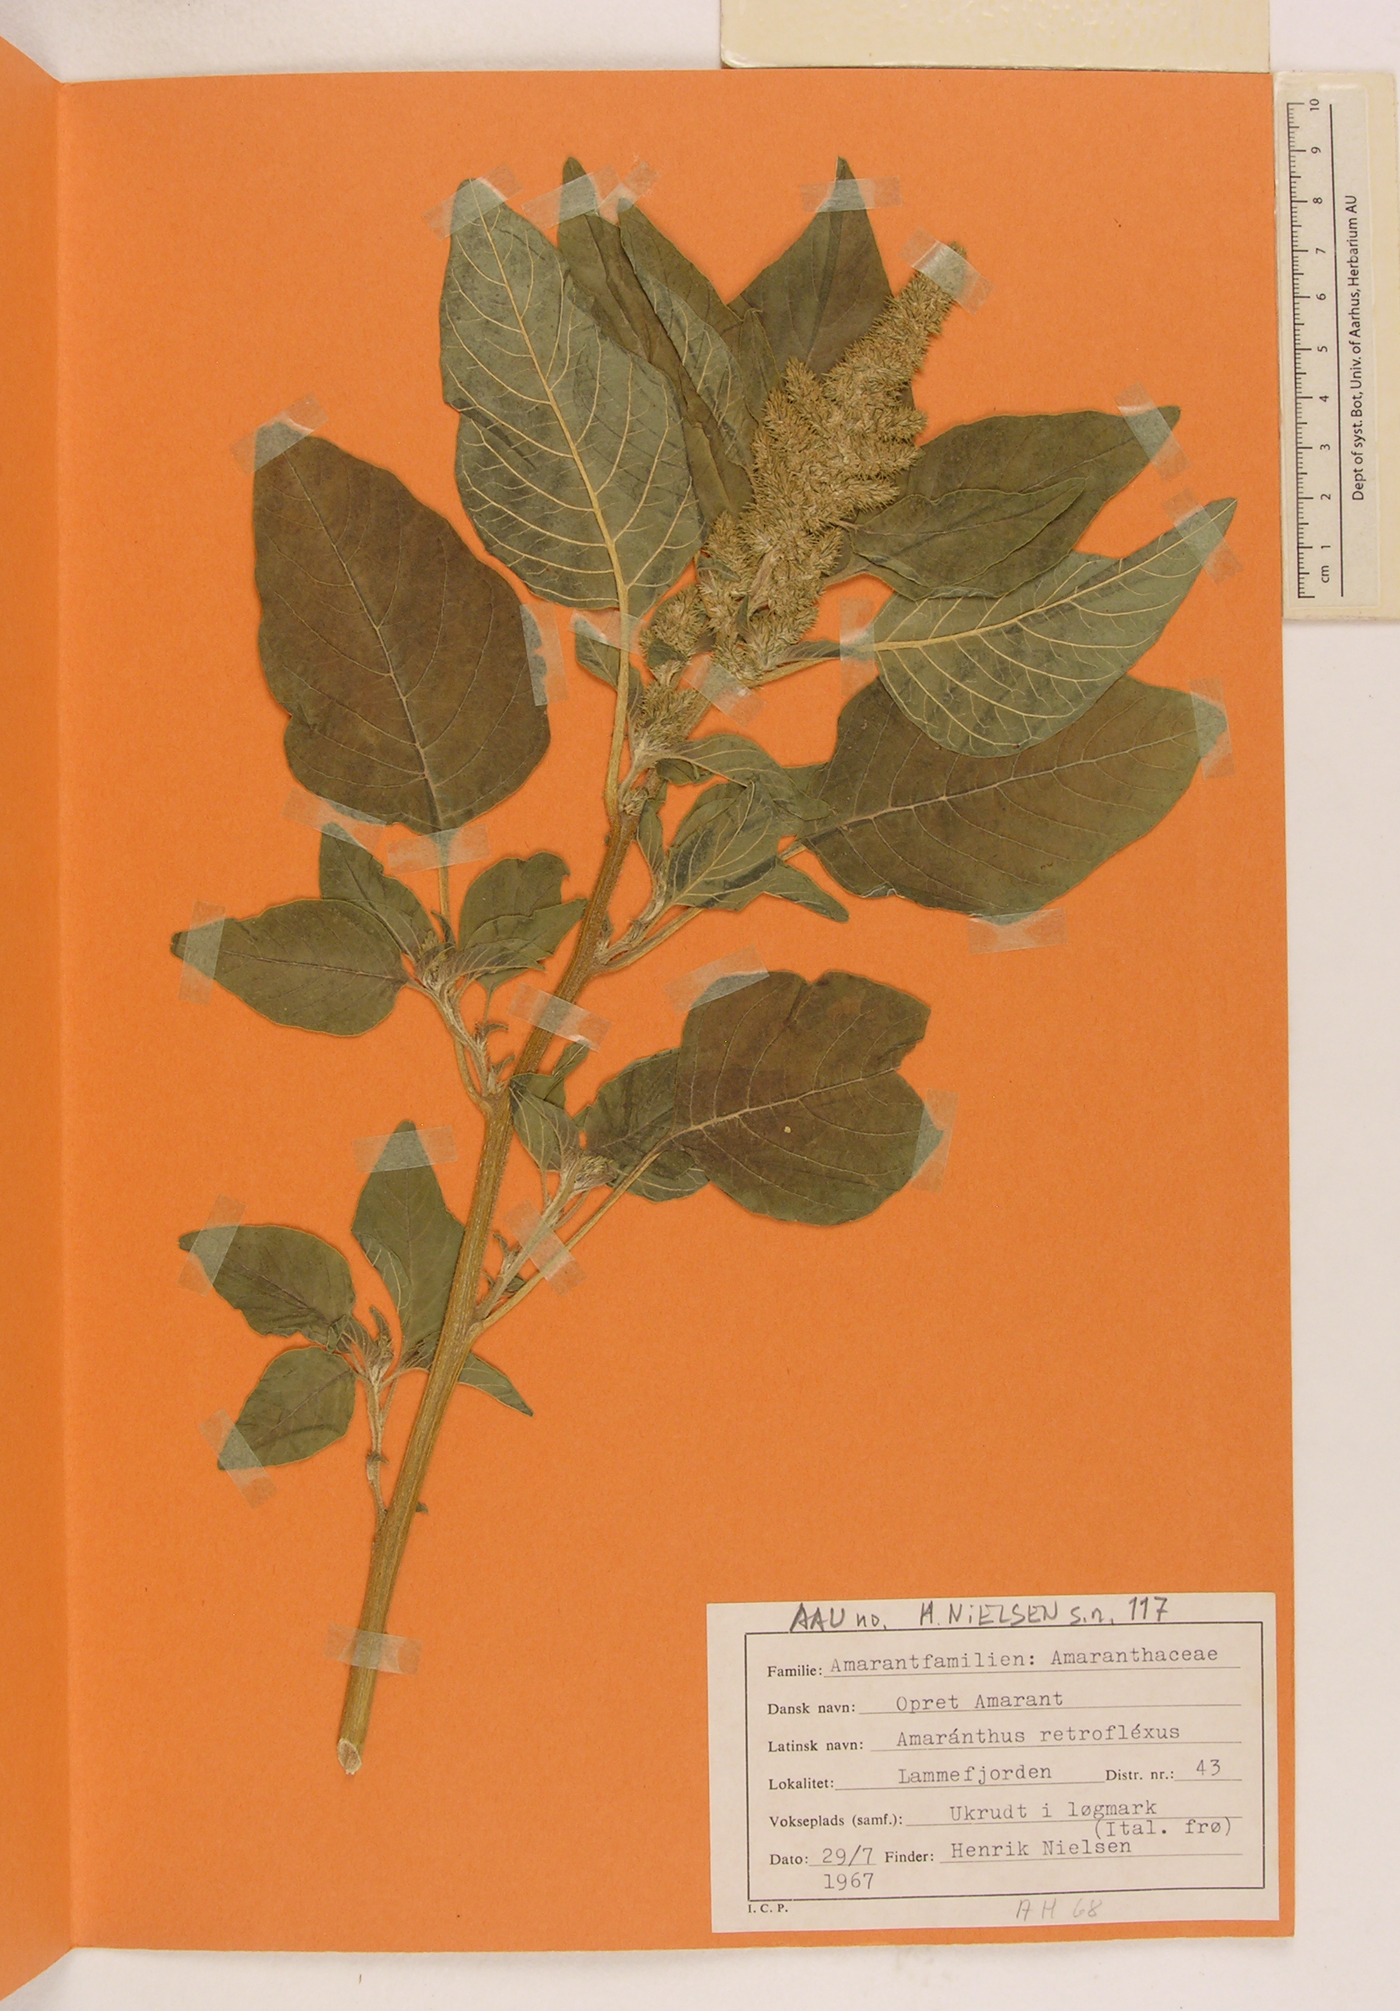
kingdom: Plantae
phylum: Tracheophyta
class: Magnoliopsida
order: Caryophyllales
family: Amaranthaceae
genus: Amaranthus
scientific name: Amaranthus retroflexus
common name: Redroot amaranth
